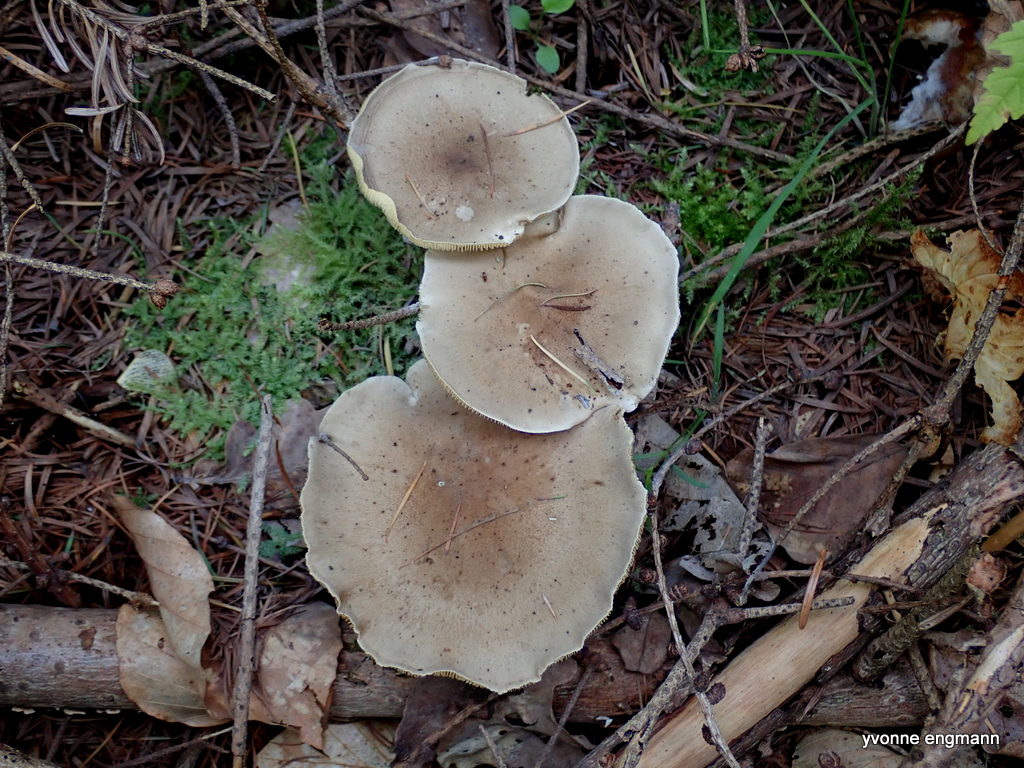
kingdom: Fungi
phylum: Basidiomycota
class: Agaricomycetes
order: Agaricales
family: Hygrophoraceae
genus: Ampulloclitocybe
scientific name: Ampulloclitocybe clavipes
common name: køllefod
